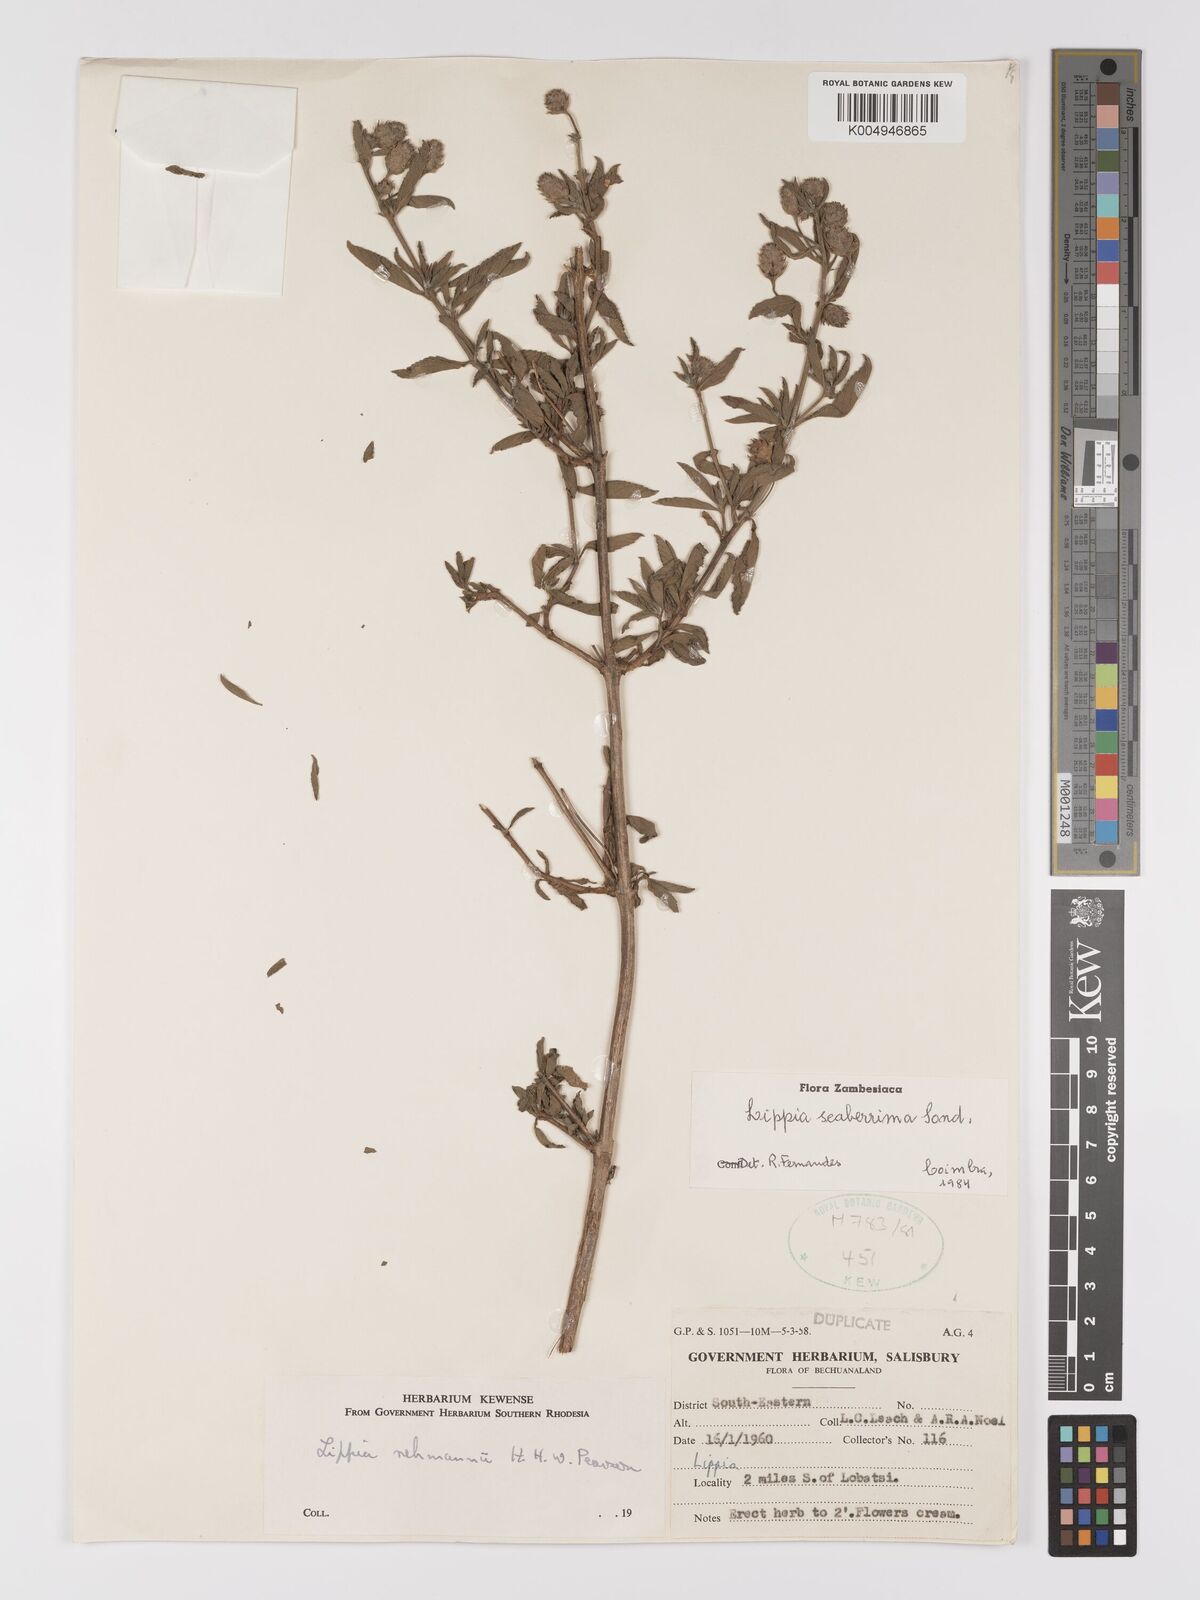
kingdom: Plantae
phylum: Tracheophyta
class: Magnoliopsida
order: Lamiales
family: Verbenaceae
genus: Lippia
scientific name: Lippia scaberrima
